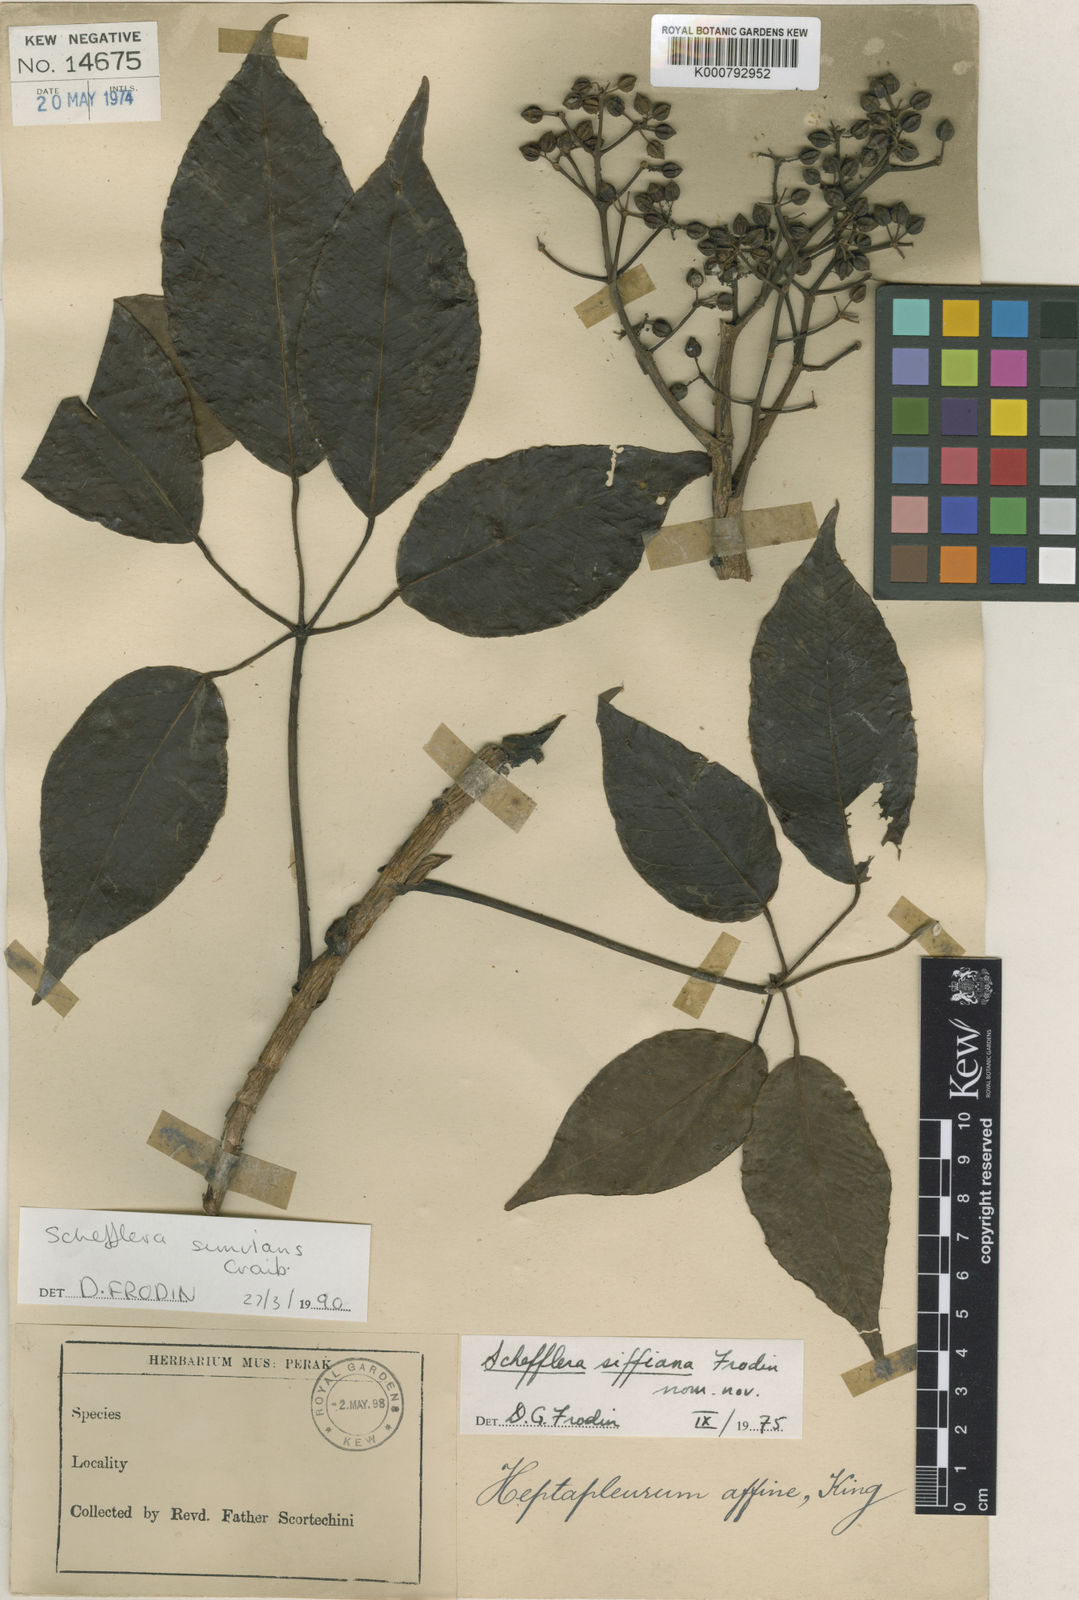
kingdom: Plantae
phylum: Tracheophyta
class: Magnoliopsida
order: Apiales
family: Araliaceae
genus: Schefflera
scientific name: Schefflera
